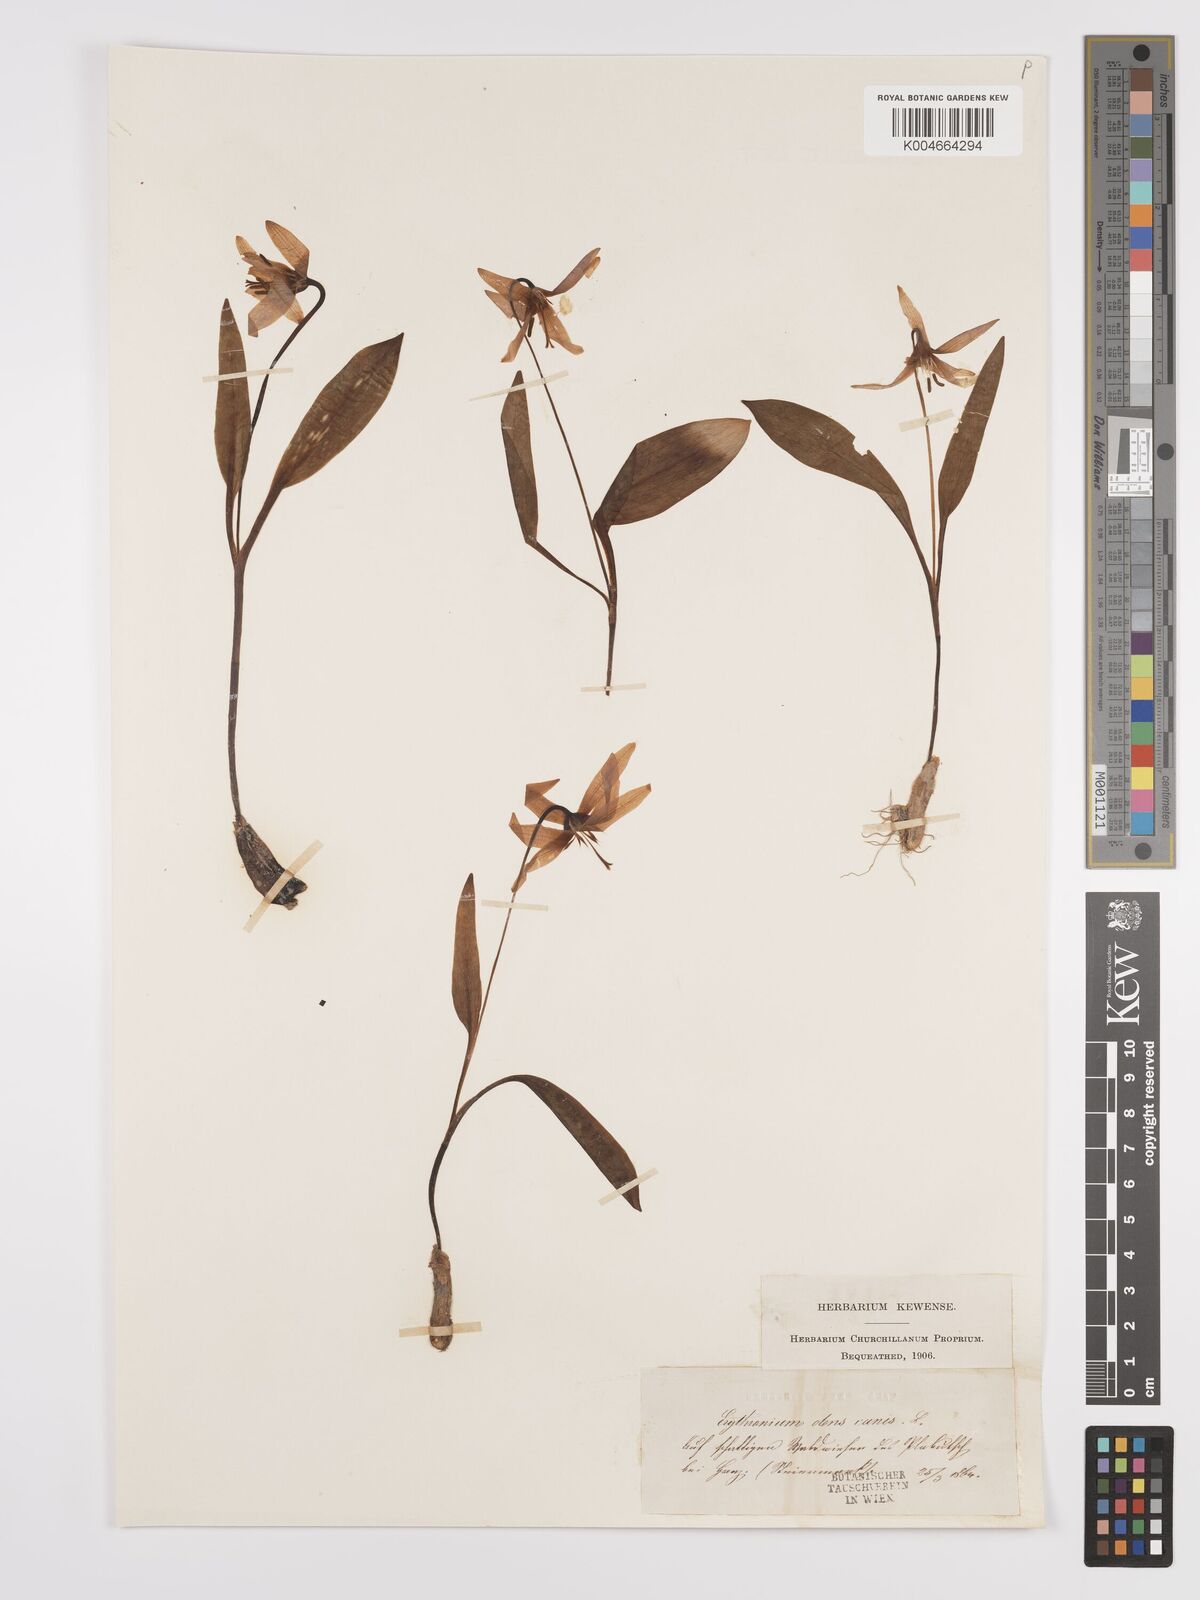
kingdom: Plantae
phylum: Tracheophyta
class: Liliopsida
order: Liliales
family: Liliaceae
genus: Erythronium
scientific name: Erythronium dens-canis
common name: Dog's-tooth-violet
